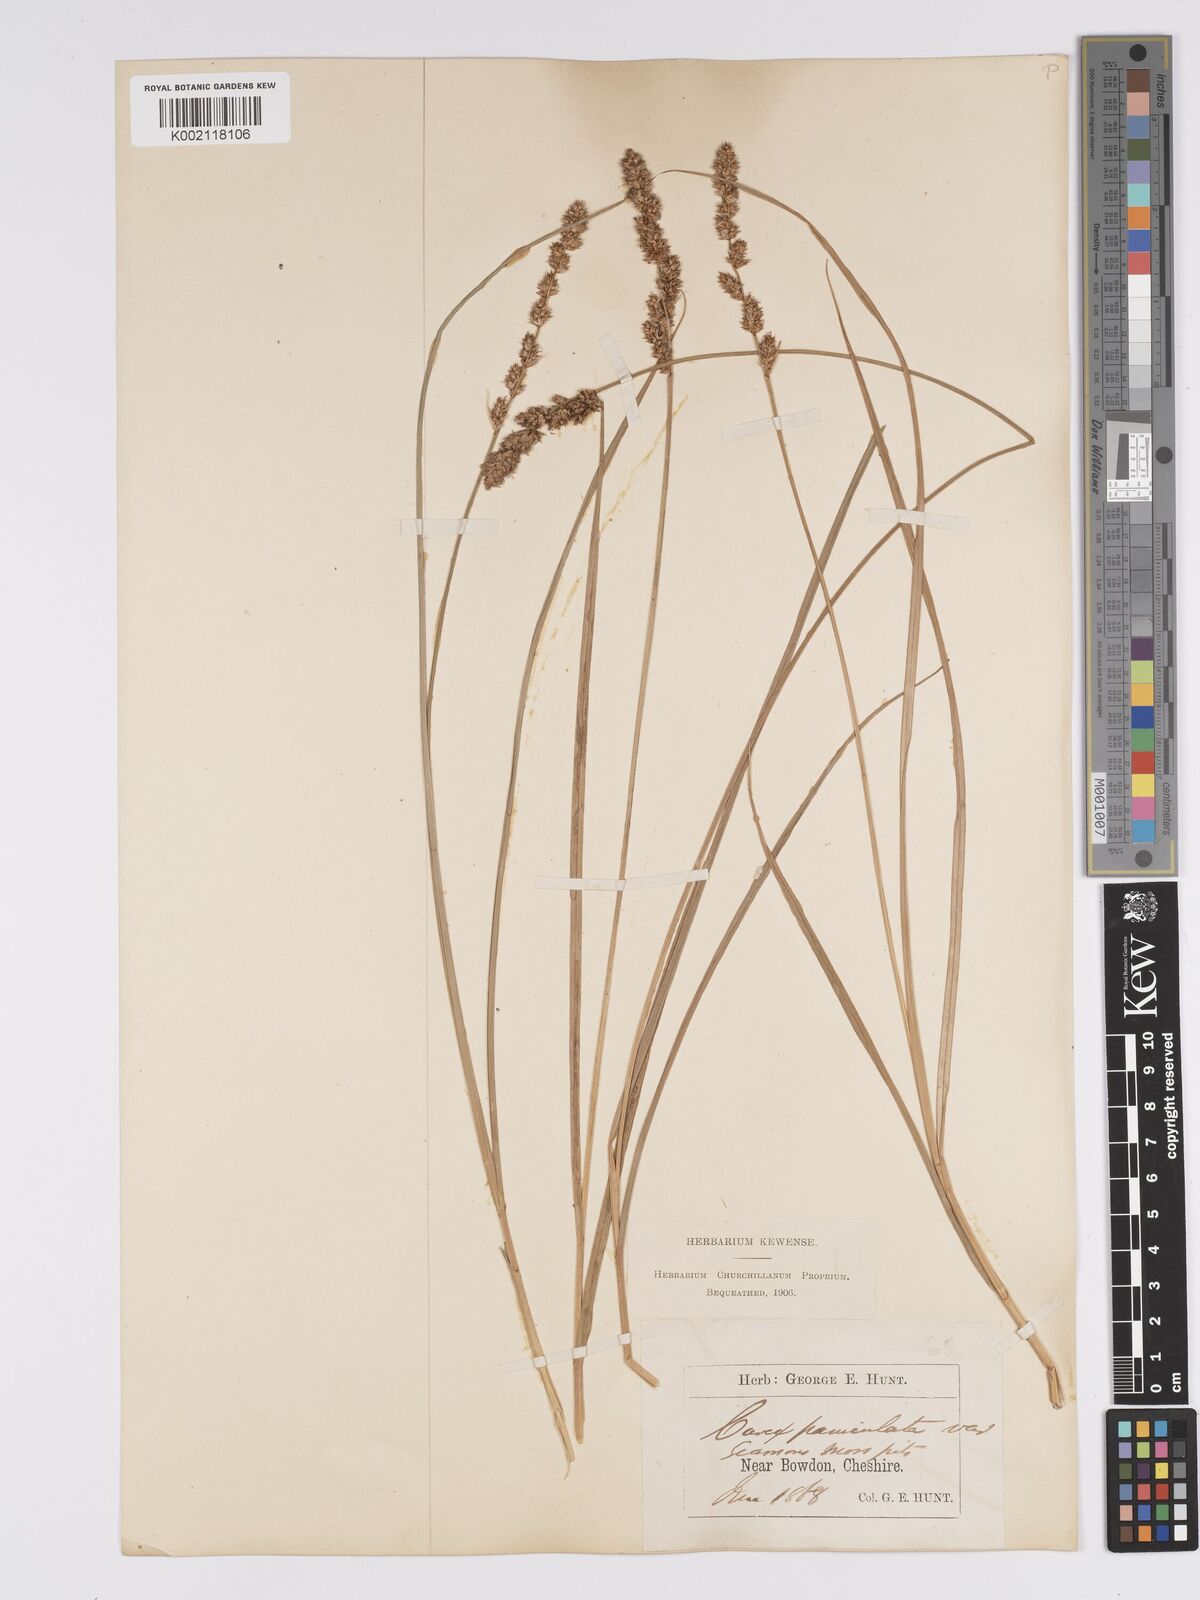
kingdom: Plantae
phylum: Tracheophyta
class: Liliopsida
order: Poales
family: Cyperaceae
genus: Carex
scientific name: Carex paniculata
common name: Greater tussock-sedge
